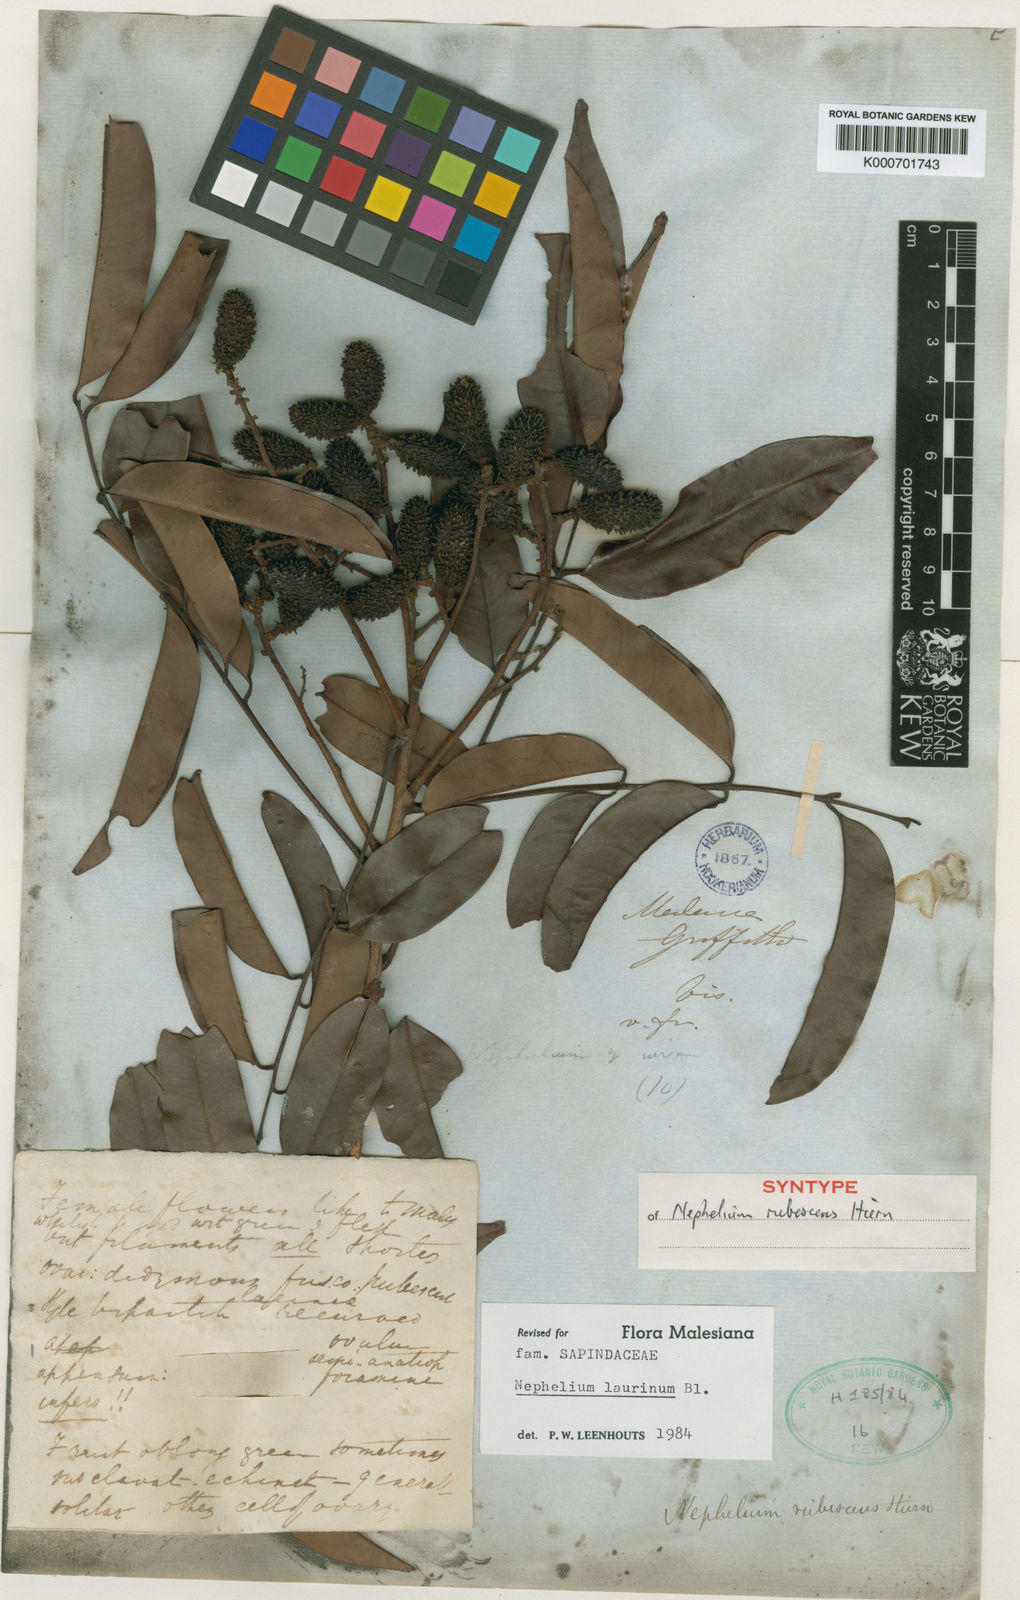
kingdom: Plantae
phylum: Tracheophyta
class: Magnoliopsida
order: Sapindales
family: Sapindaceae
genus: Nephelium
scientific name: Nephelium laurinum
